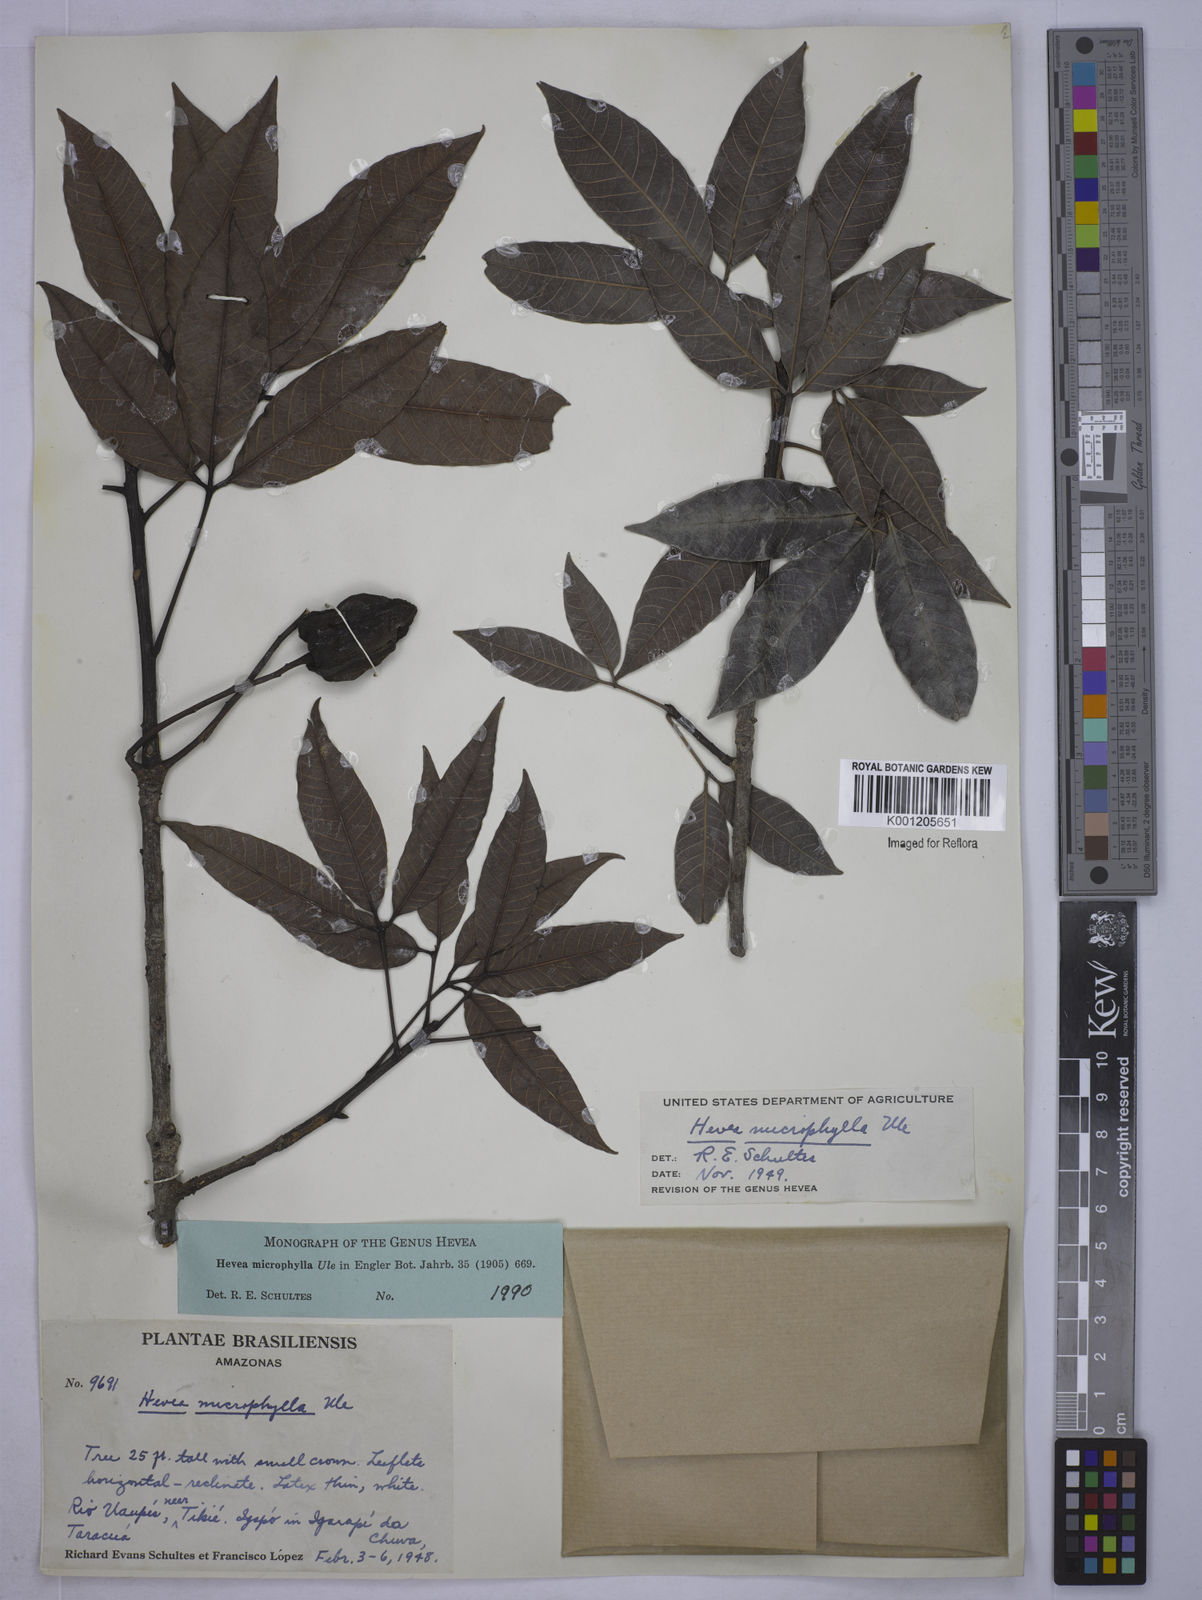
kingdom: Plantae
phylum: Tracheophyta
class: Magnoliopsida
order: Malpighiales
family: Euphorbiaceae
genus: Hevea
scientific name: Hevea microphylla
